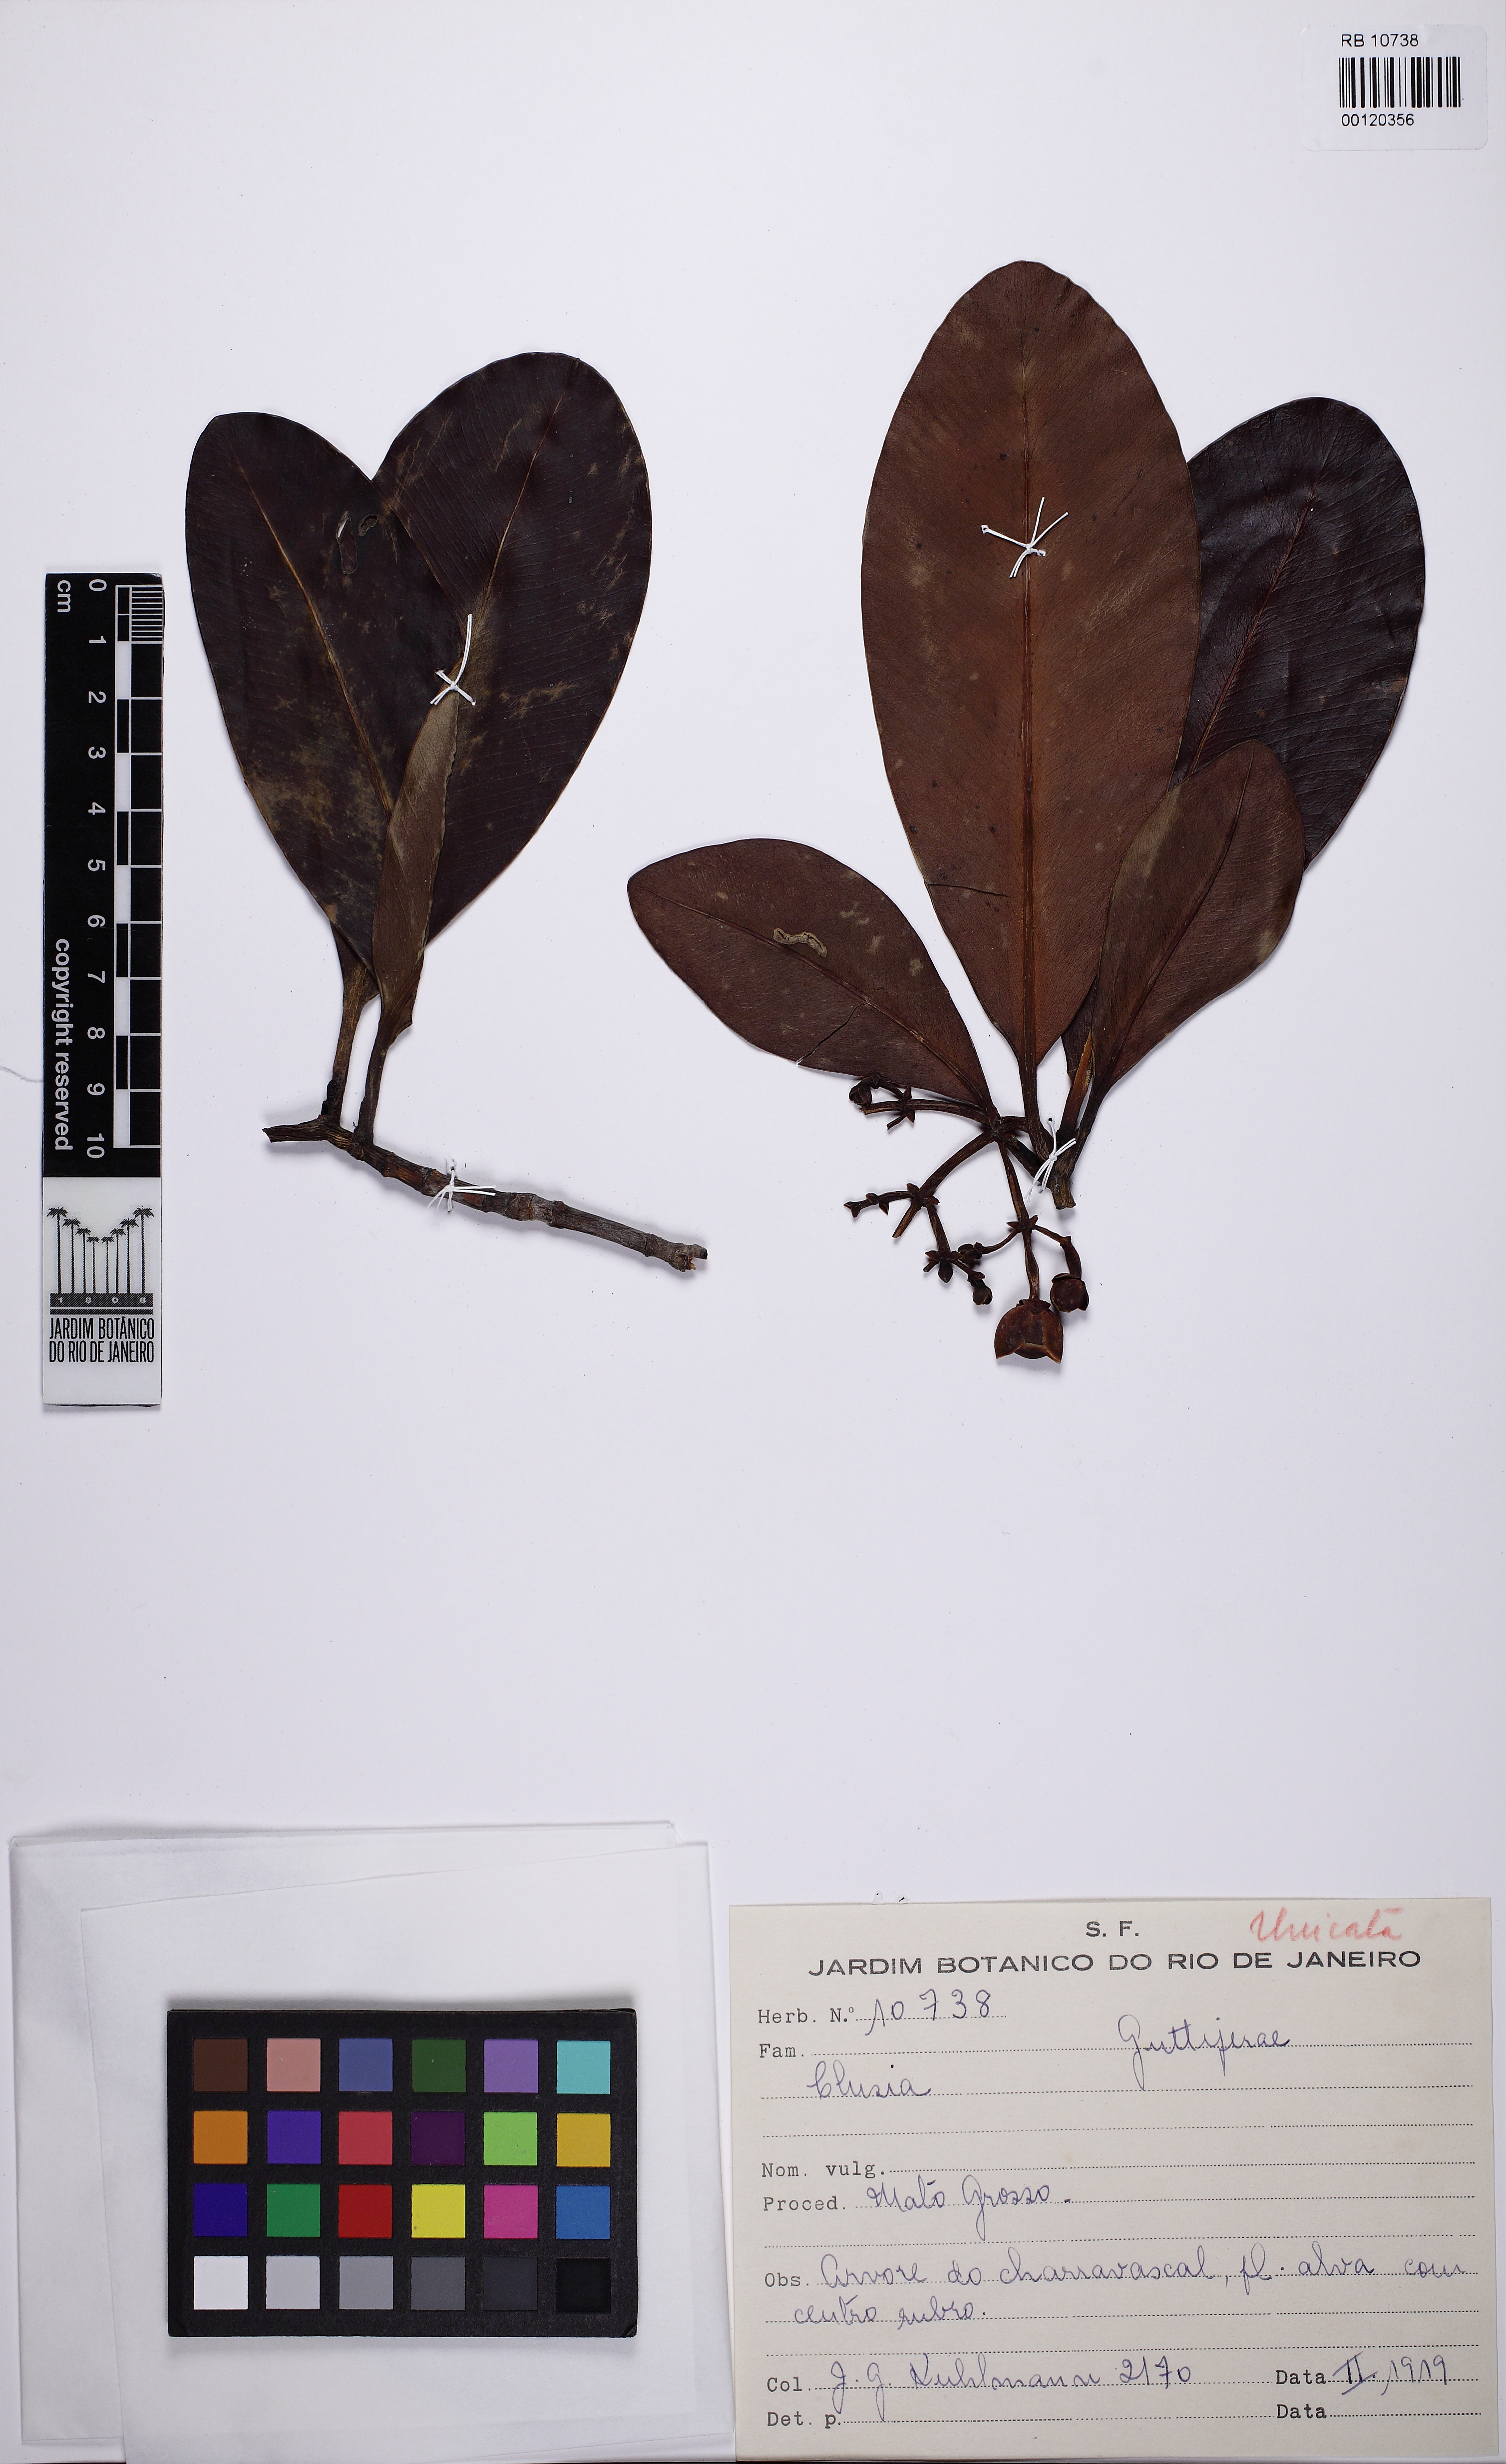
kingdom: Plantae
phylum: Tracheophyta
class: Magnoliopsida
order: Malpighiales
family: Clusiaceae
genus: Clusia
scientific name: Clusia
